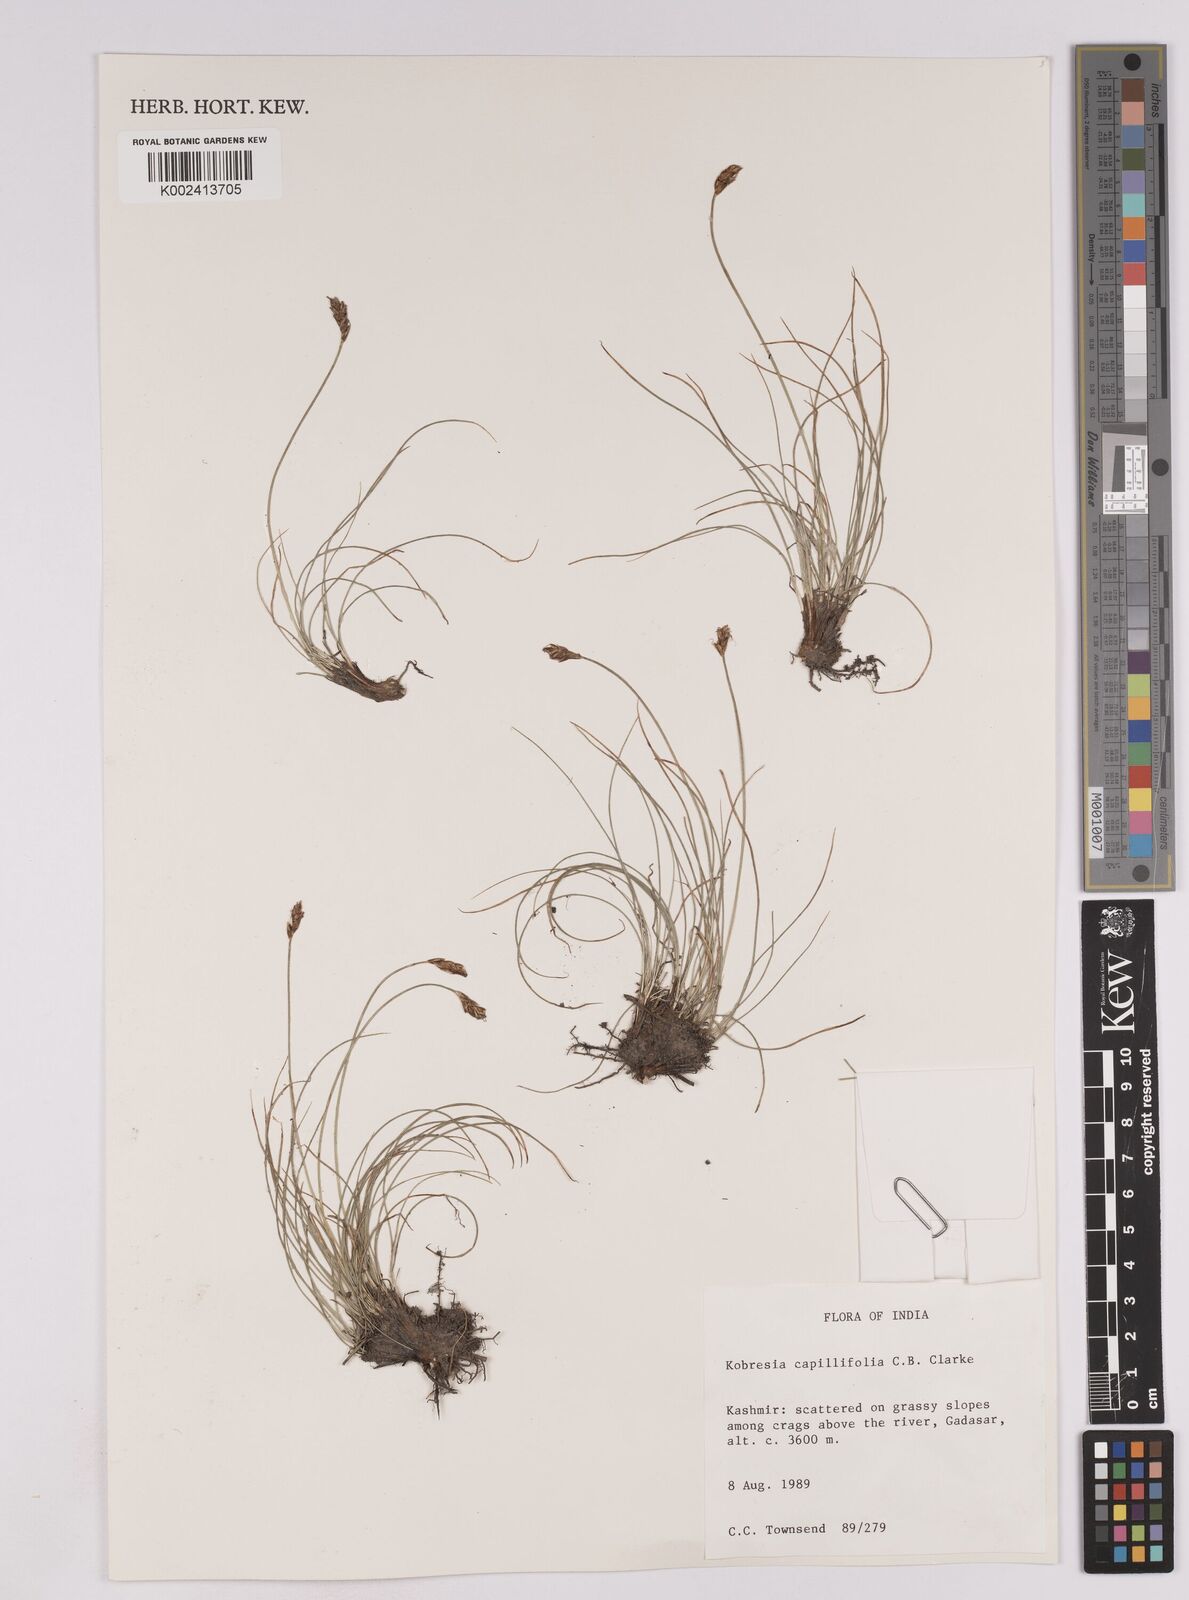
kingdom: Plantae
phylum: Tracheophyta
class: Liliopsida
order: Poales
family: Cyperaceae
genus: Carex
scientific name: Carex capillifolia
